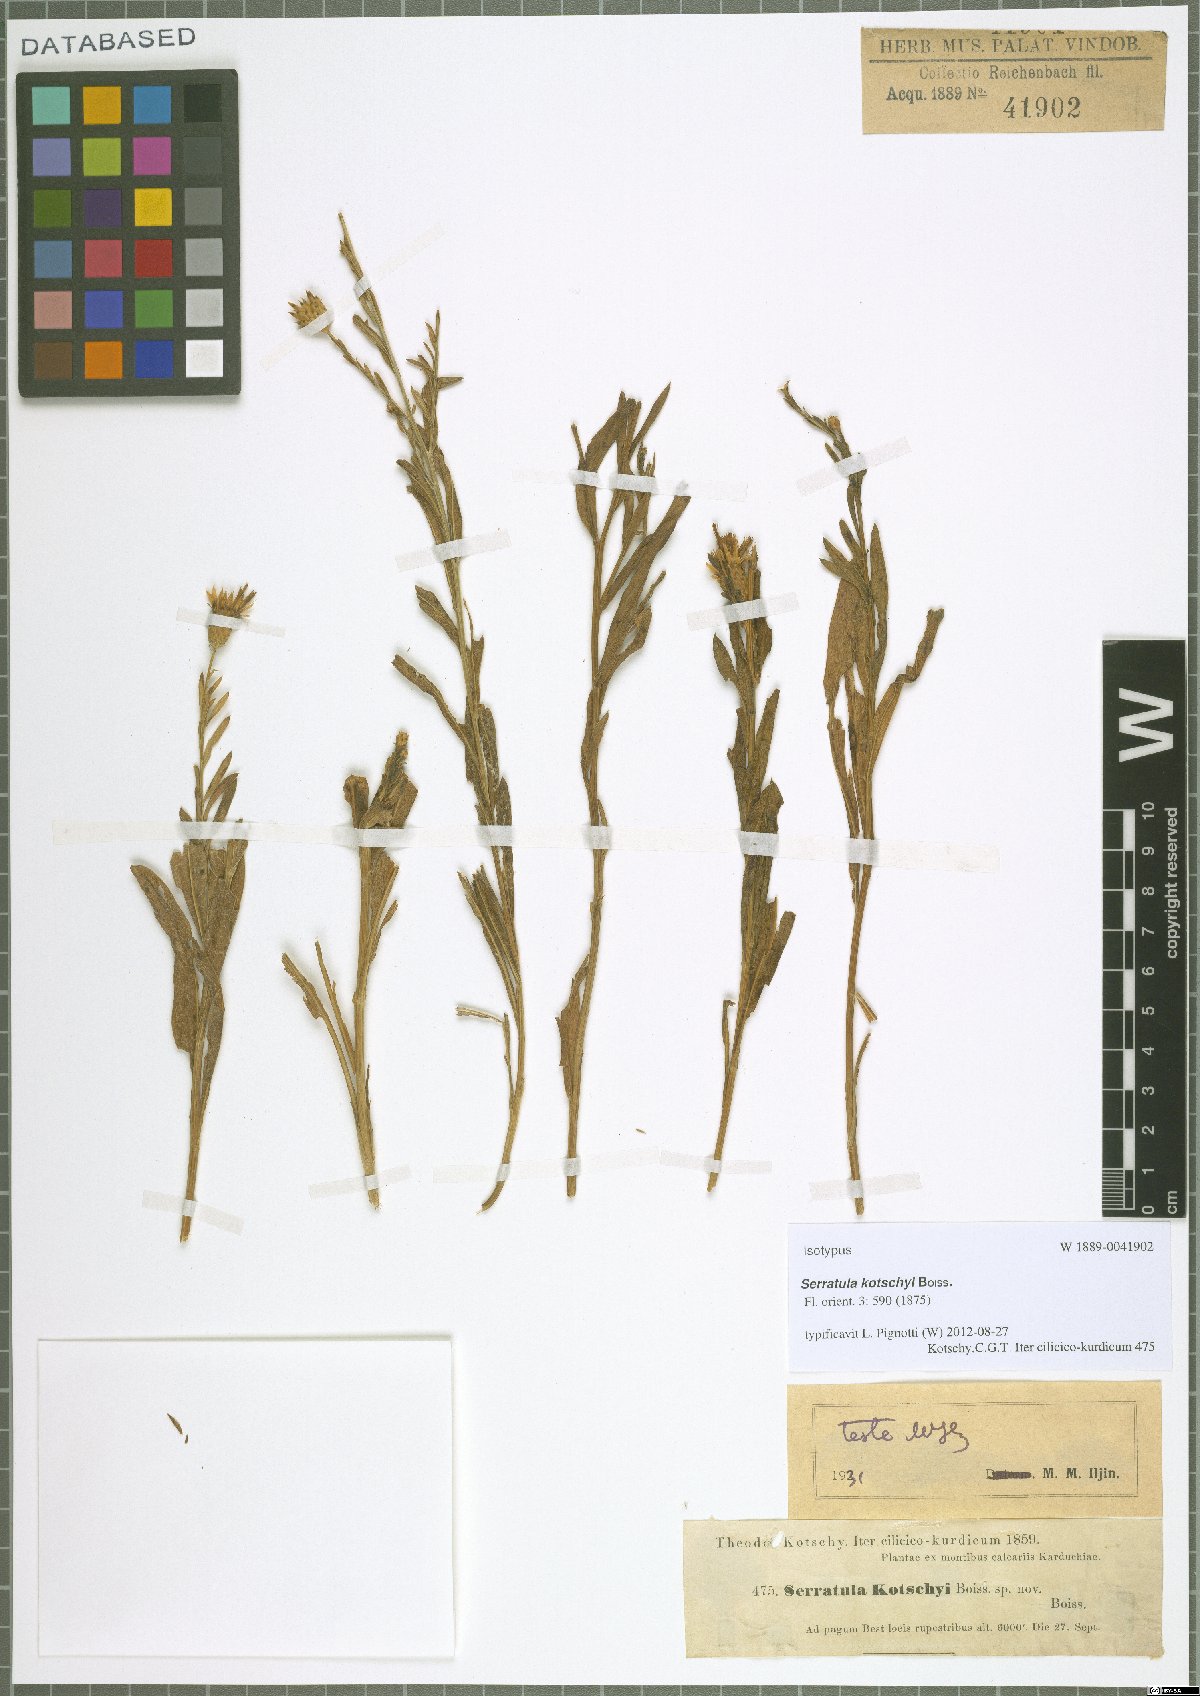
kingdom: Plantae
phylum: Tracheophyta
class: Magnoliopsida
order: Asterales
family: Asteraceae
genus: Klasea
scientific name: Klasea kotschyi
